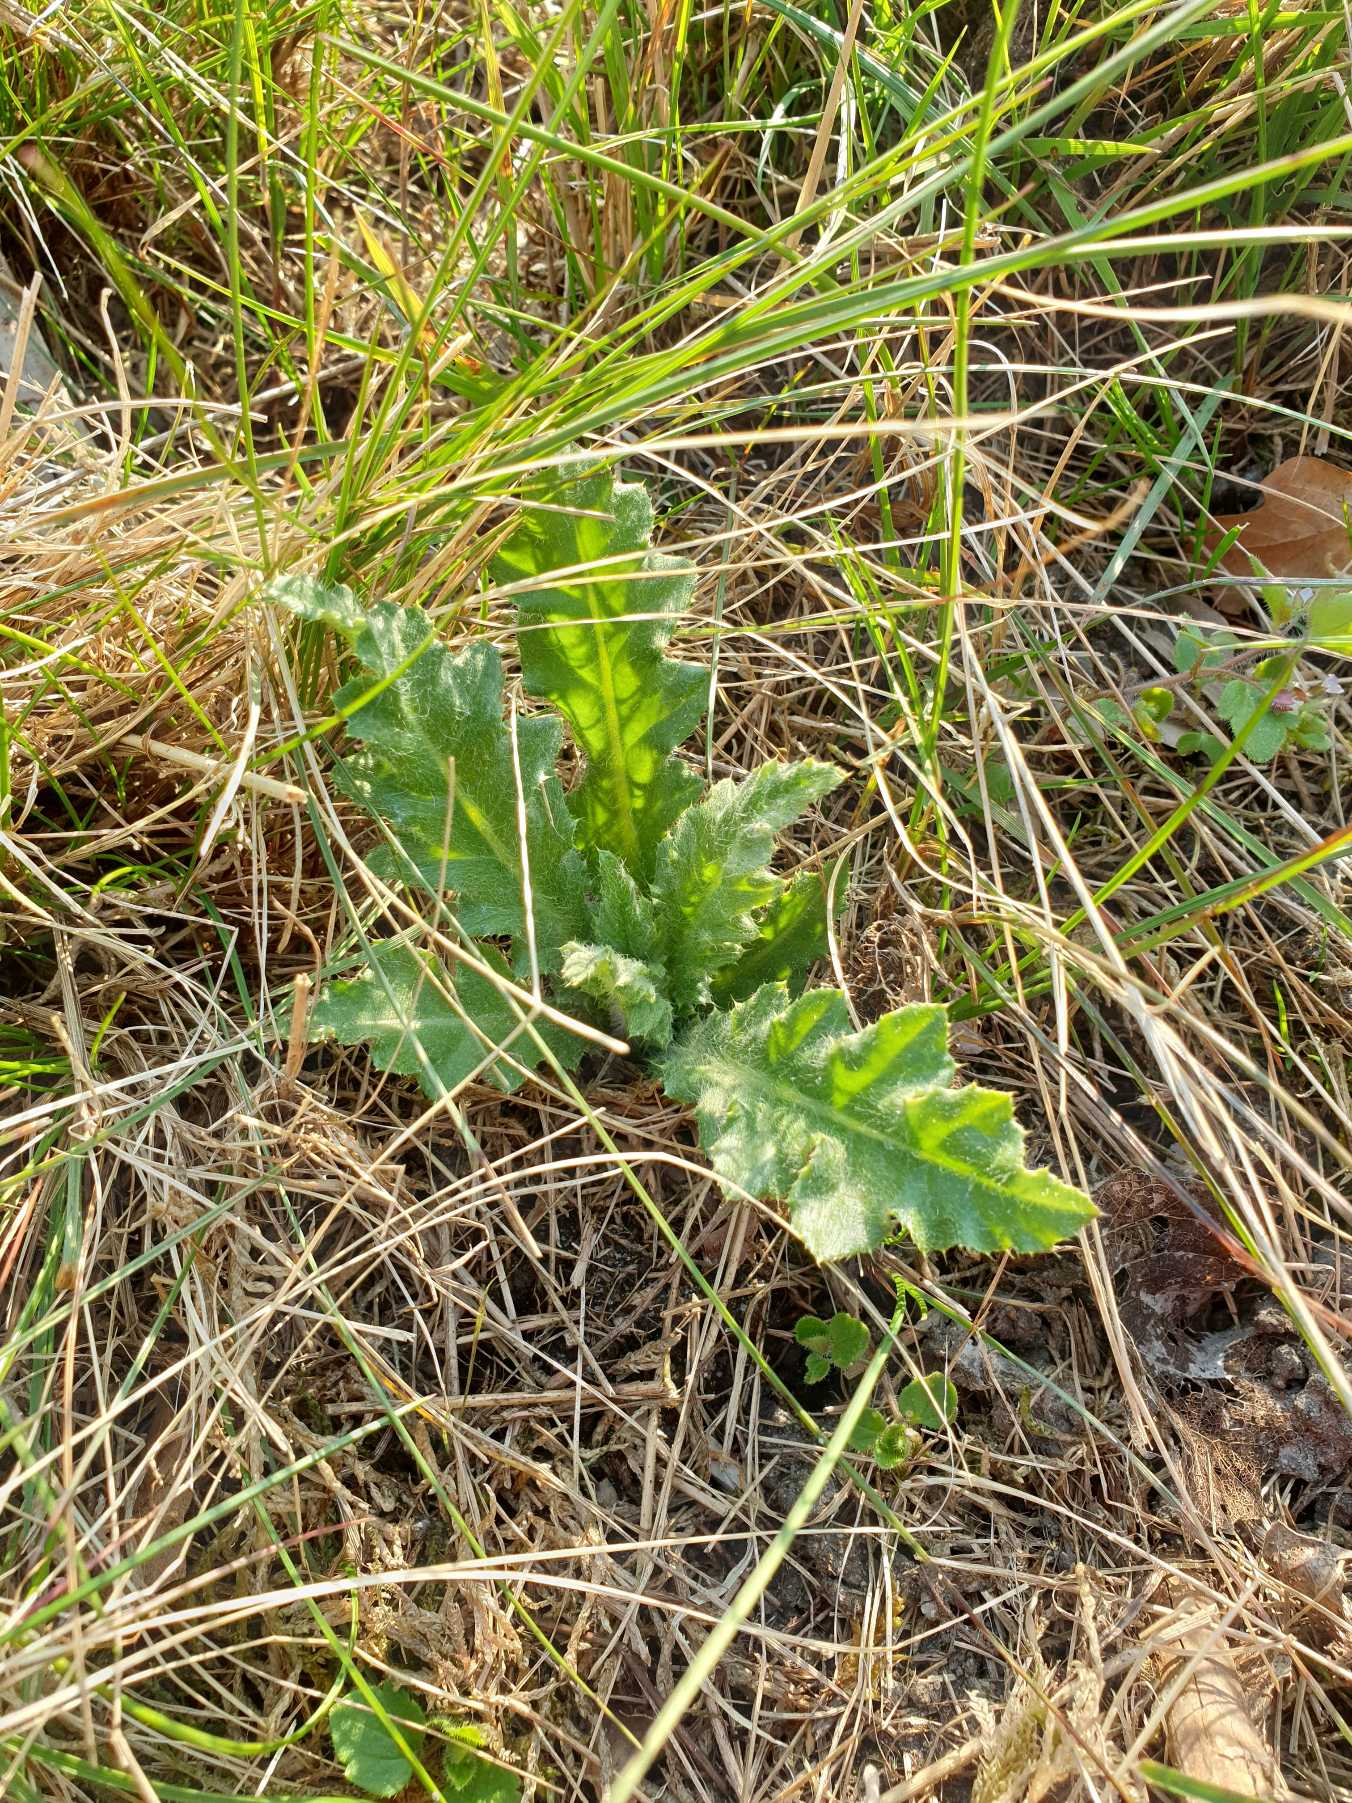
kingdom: Plantae
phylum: Tracheophyta
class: Magnoliopsida
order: Asterales
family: Asteraceae
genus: Cirsium
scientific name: Cirsium arvense
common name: Ager-tidsel
